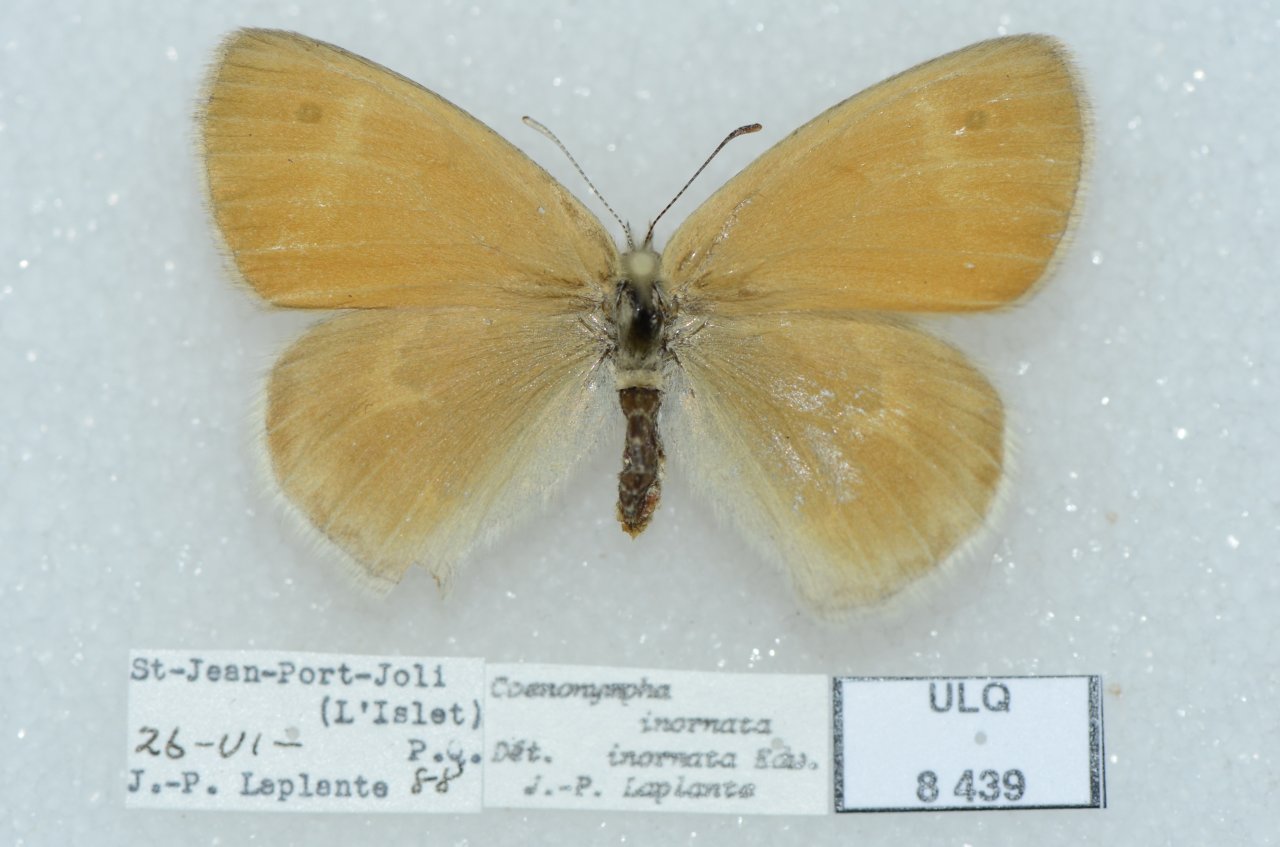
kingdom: Animalia
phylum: Arthropoda
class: Insecta
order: Lepidoptera
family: Nymphalidae
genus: Coenonympha
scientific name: Coenonympha tullia
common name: Large Heath
